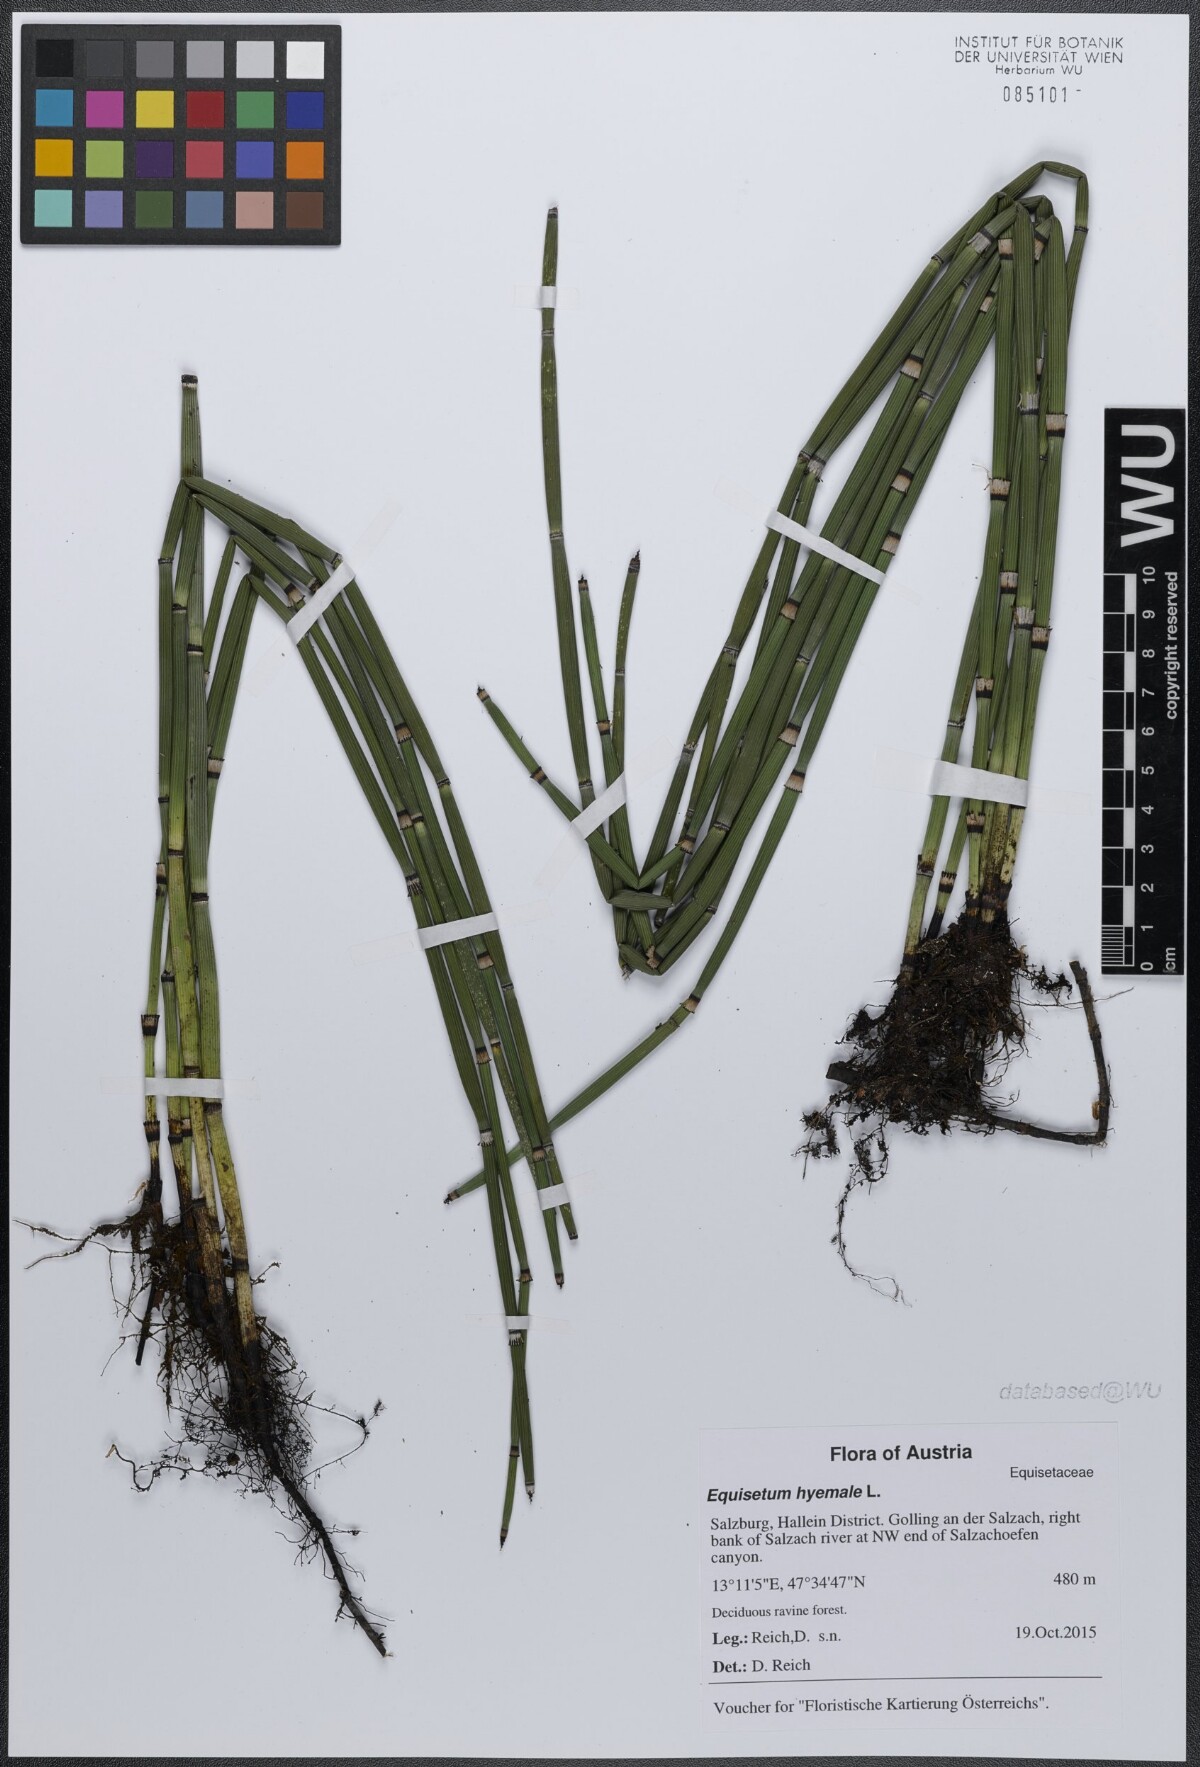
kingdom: Plantae
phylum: Tracheophyta
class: Polypodiopsida
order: Equisetales
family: Equisetaceae
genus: Equisetum
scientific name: Equisetum hyemale
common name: Rough horsetail
